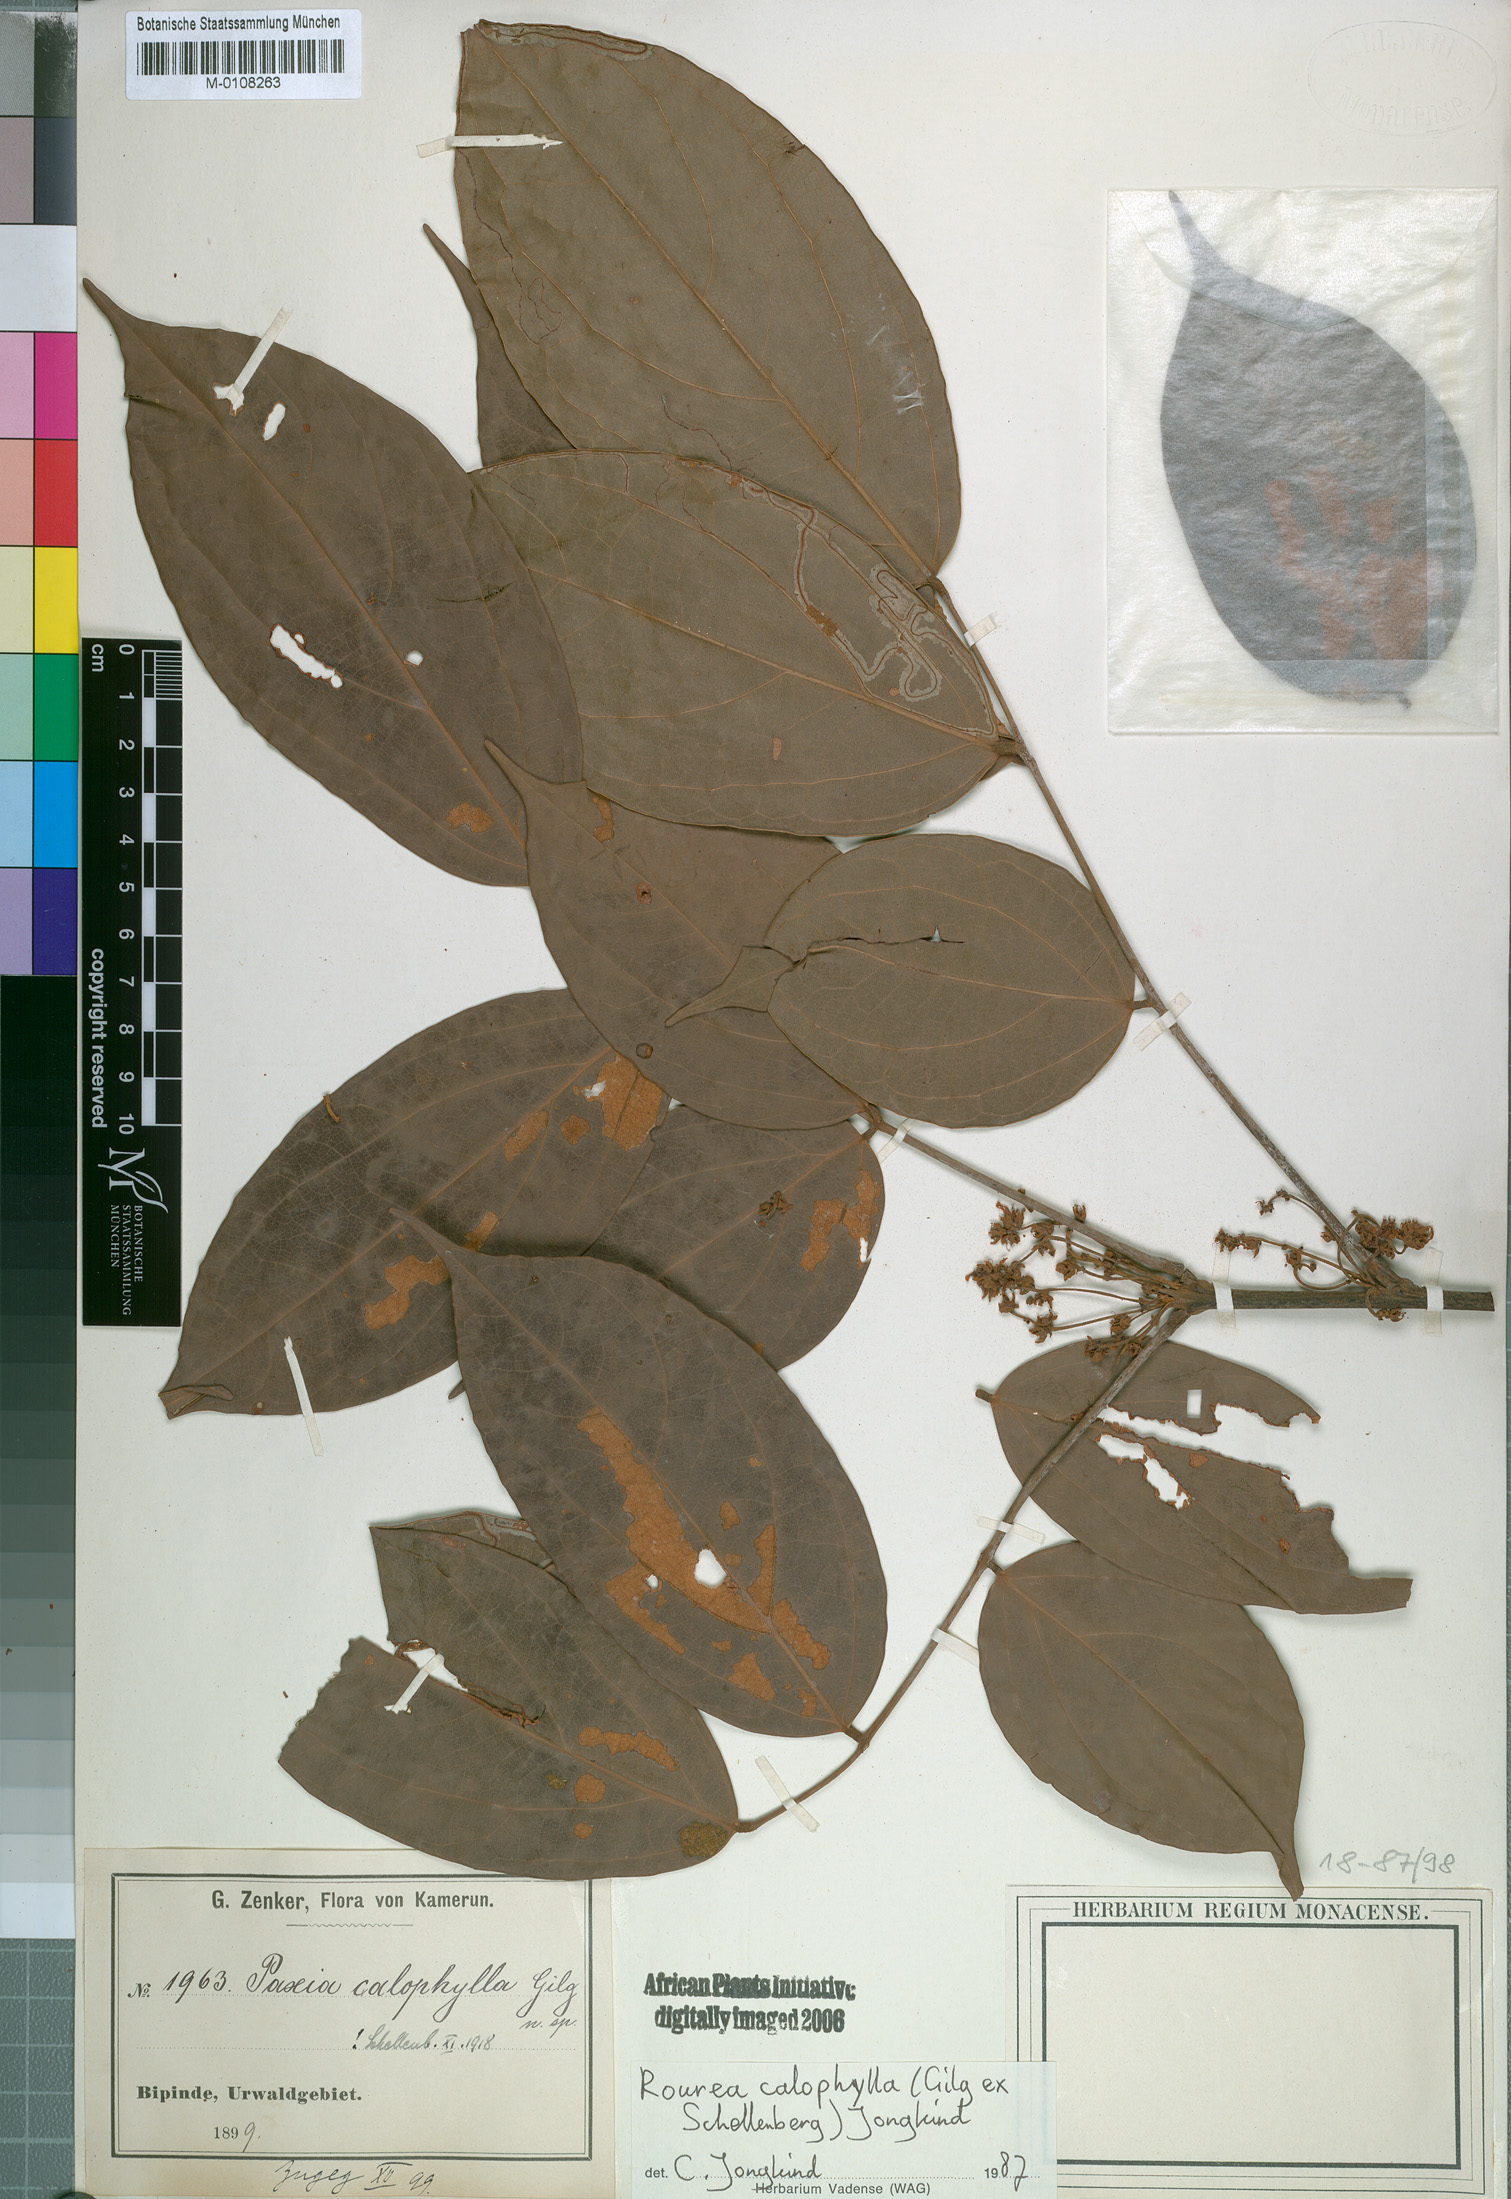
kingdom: Plantae
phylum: Tracheophyta
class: Magnoliopsida
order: Oxalidales
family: Connaraceae
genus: Rourea
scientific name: Rourea calophylla
